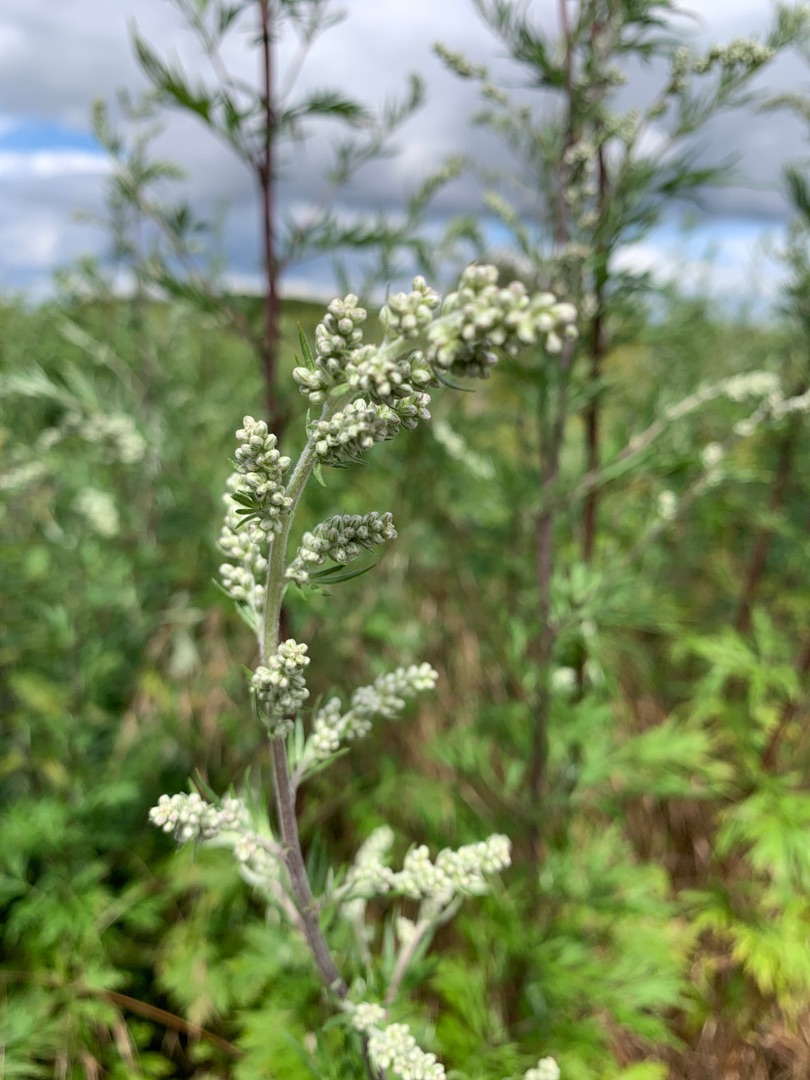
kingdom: Plantae
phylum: Tracheophyta
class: Magnoliopsida
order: Asterales
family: Asteraceae
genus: Artemisia
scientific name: Artemisia vulgaris
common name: Grå-bynke
